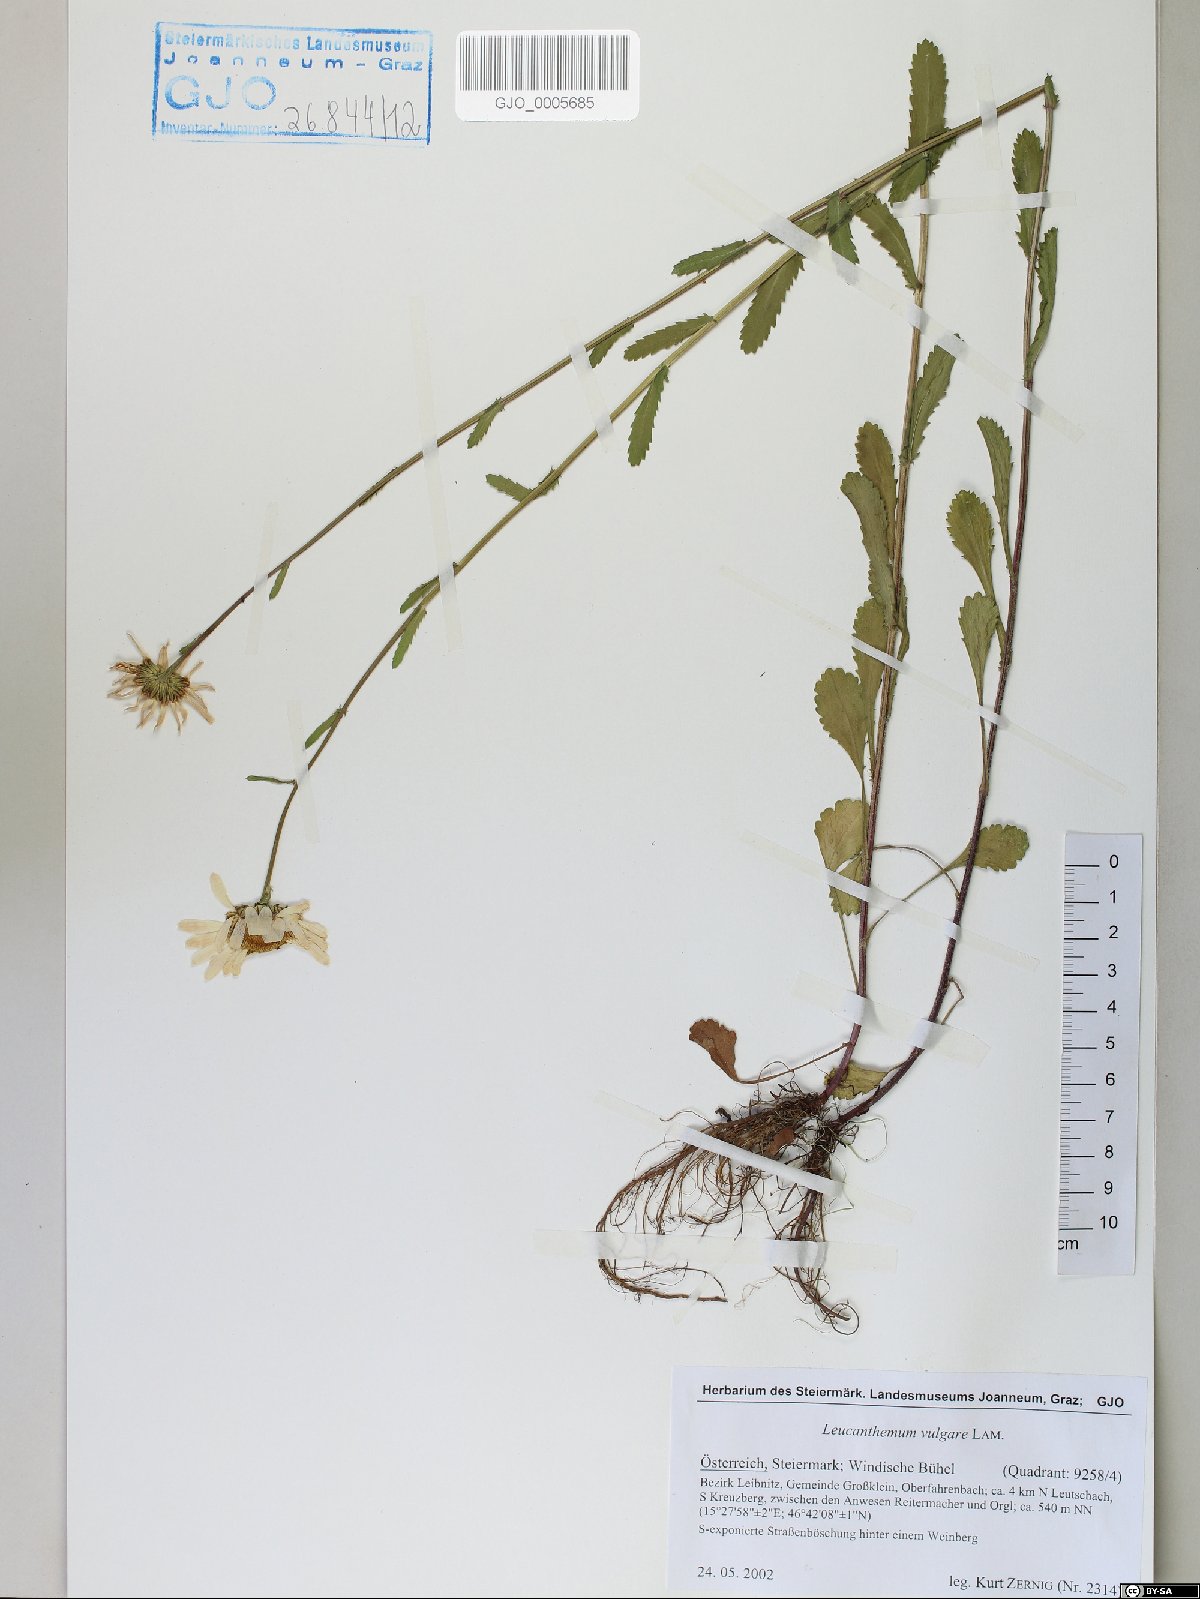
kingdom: Plantae
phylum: Tracheophyta
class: Magnoliopsida
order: Asterales
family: Asteraceae
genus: Leucanthemum
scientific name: Leucanthemum vulgare
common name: Oxeye daisy
